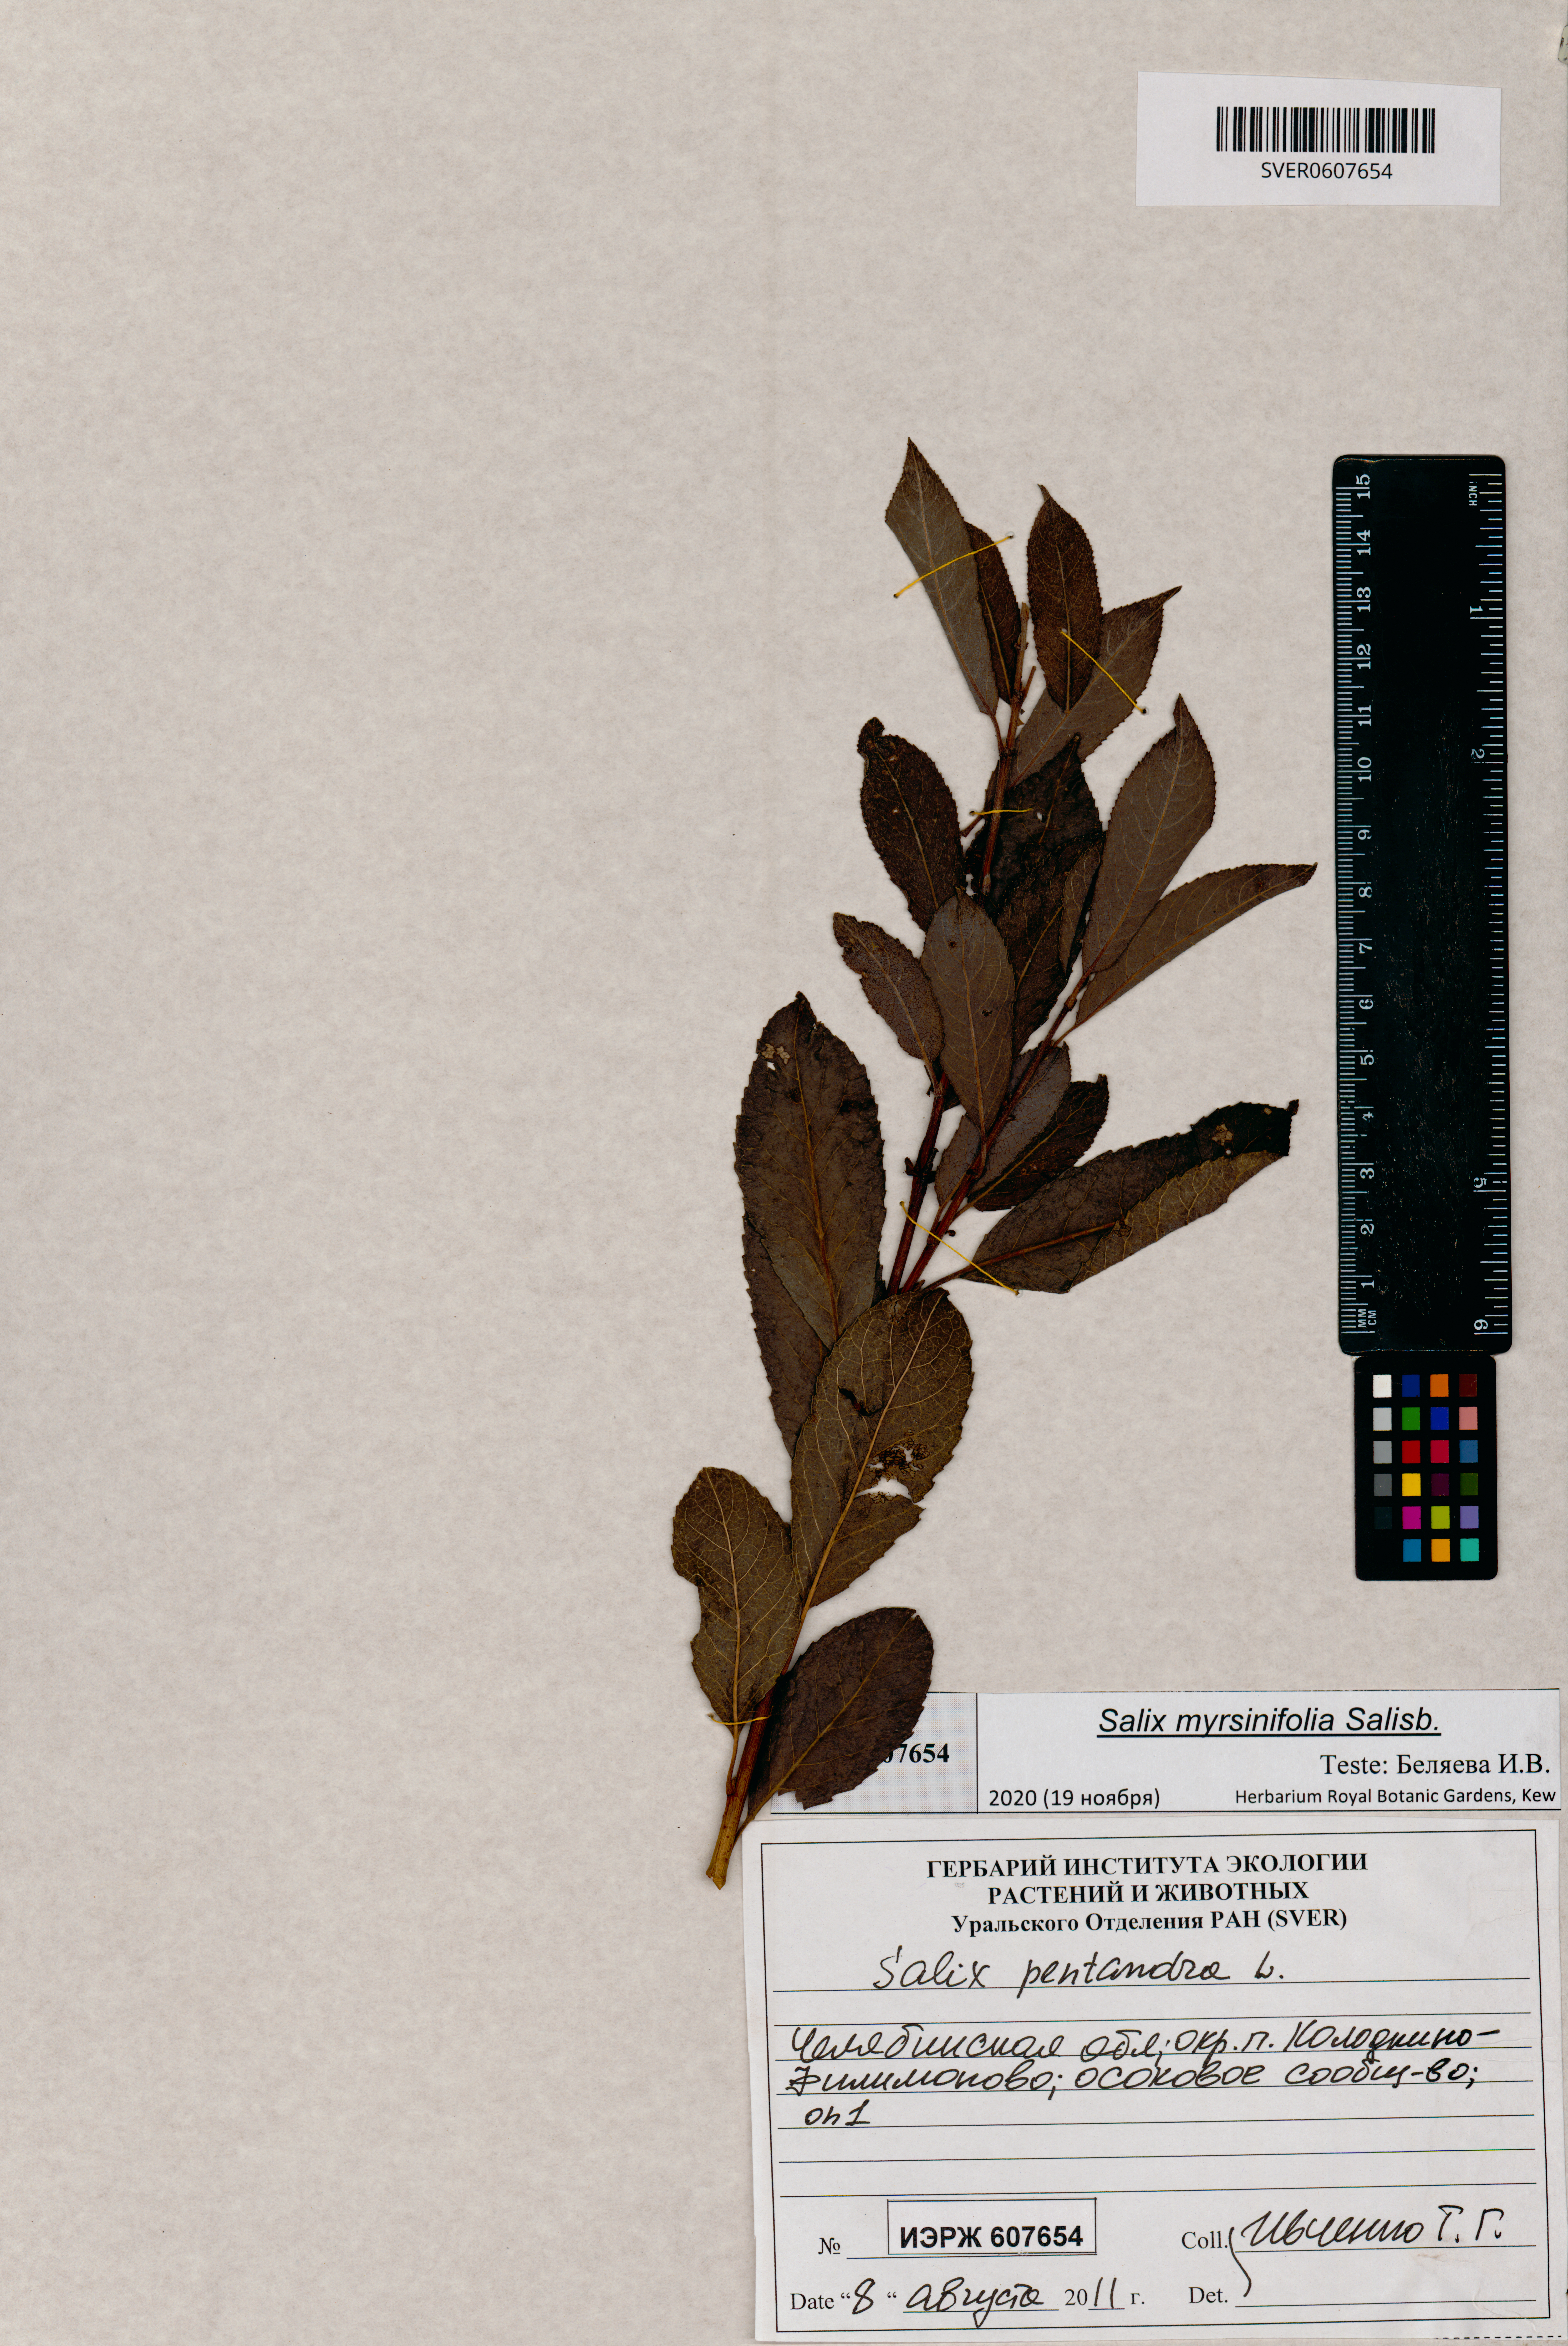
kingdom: Plantae
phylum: Tracheophyta
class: Magnoliopsida
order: Malpighiales
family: Salicaceae
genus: Salix
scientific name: Salix myrsinifolia
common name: Dark-leaved willow
